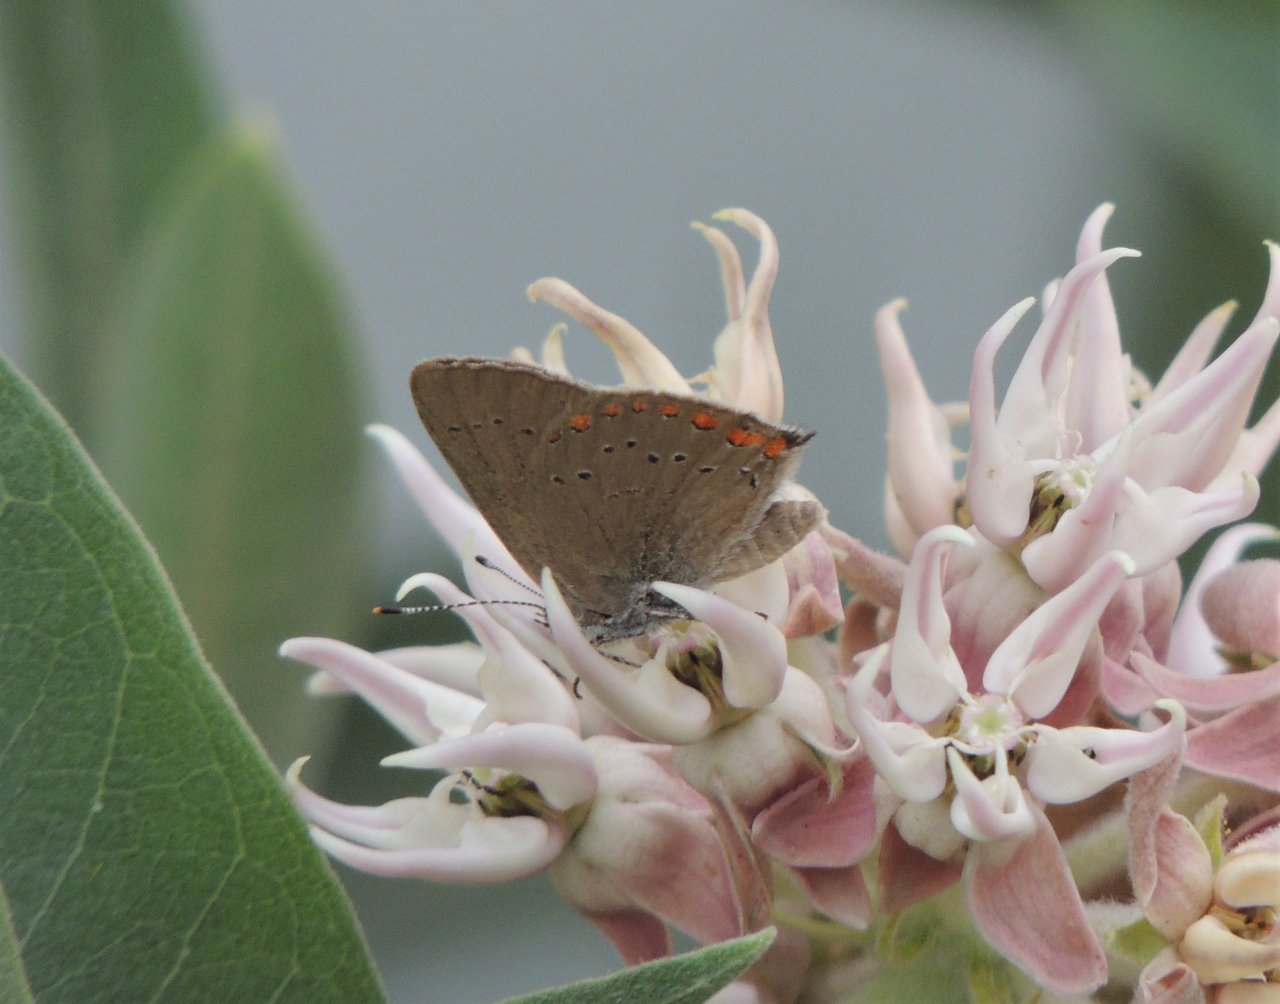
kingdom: Animalia
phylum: Arthropoda
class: Insecta
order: Lepidoptera
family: Lycaenidae
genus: Harkenclenus
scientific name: Harkenclenus titus
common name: Coral Hairstreak
